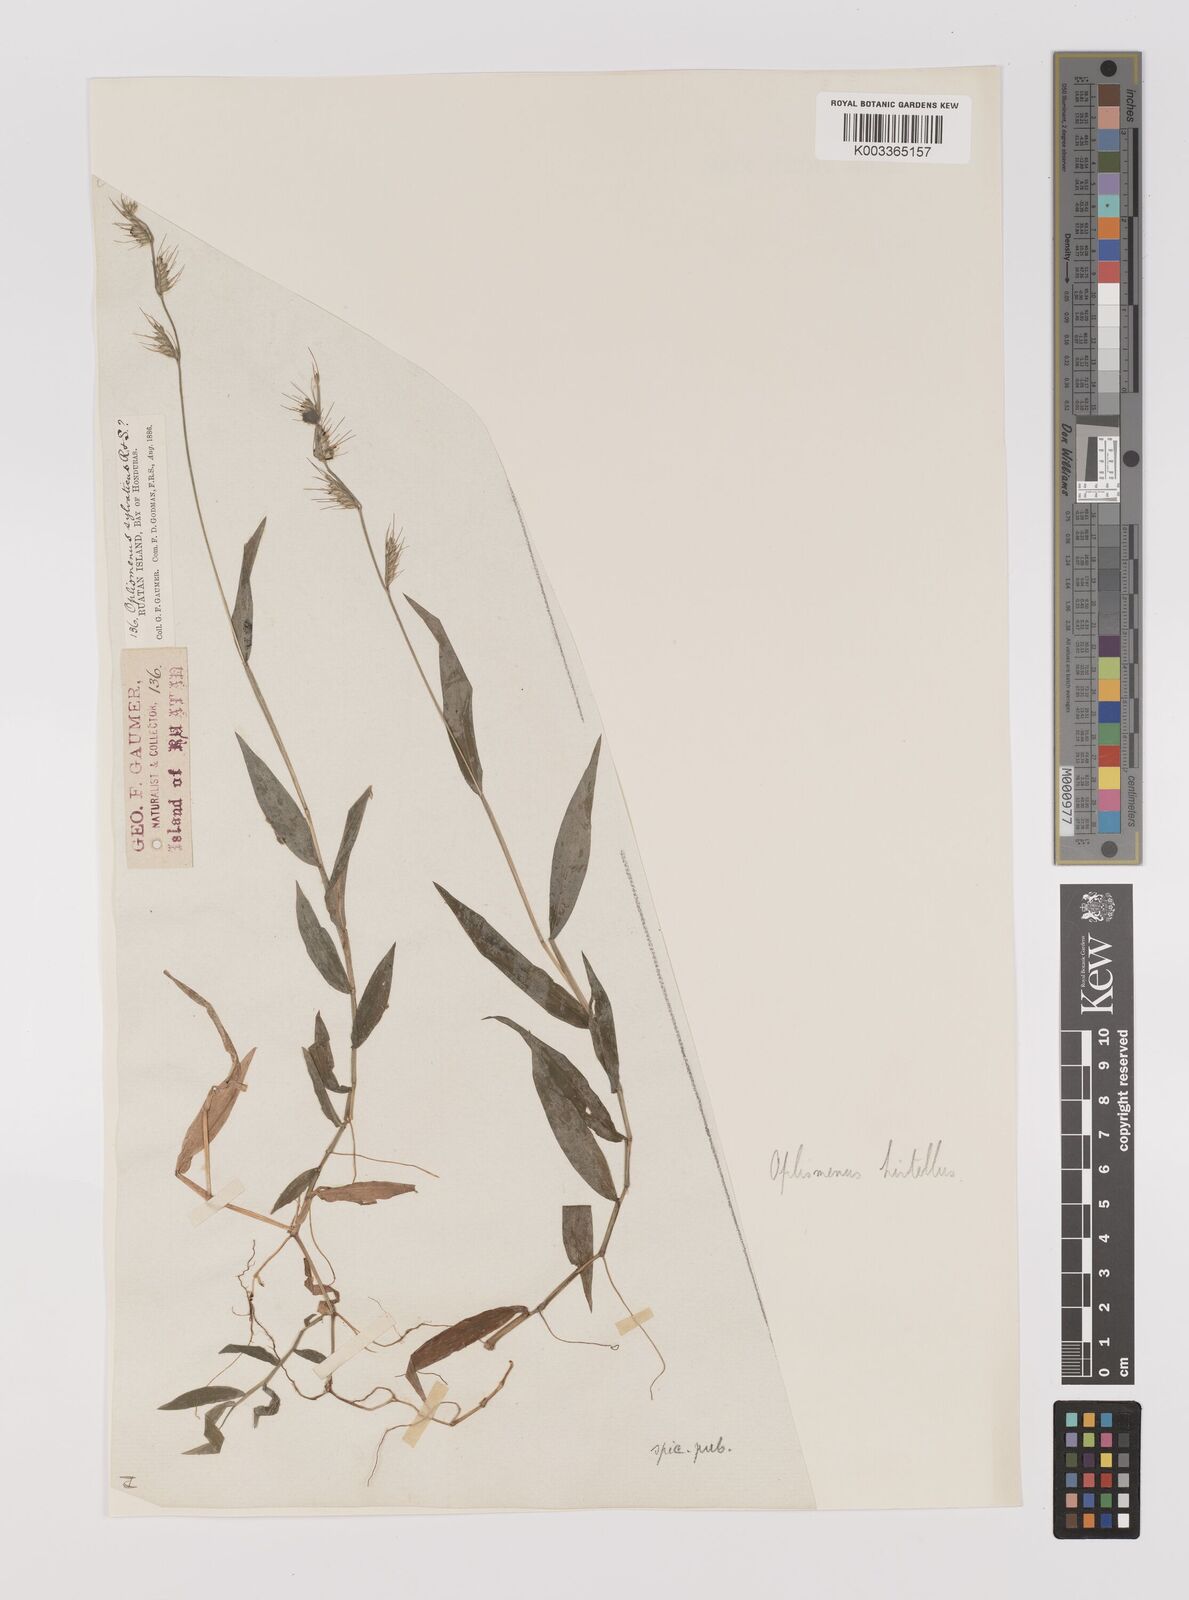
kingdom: Plantae
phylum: Tracheophyta
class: Liliopsida
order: Poales
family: Poaceae
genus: Oplismenus
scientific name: Oplismenus hirtellus
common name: Basketgrass
